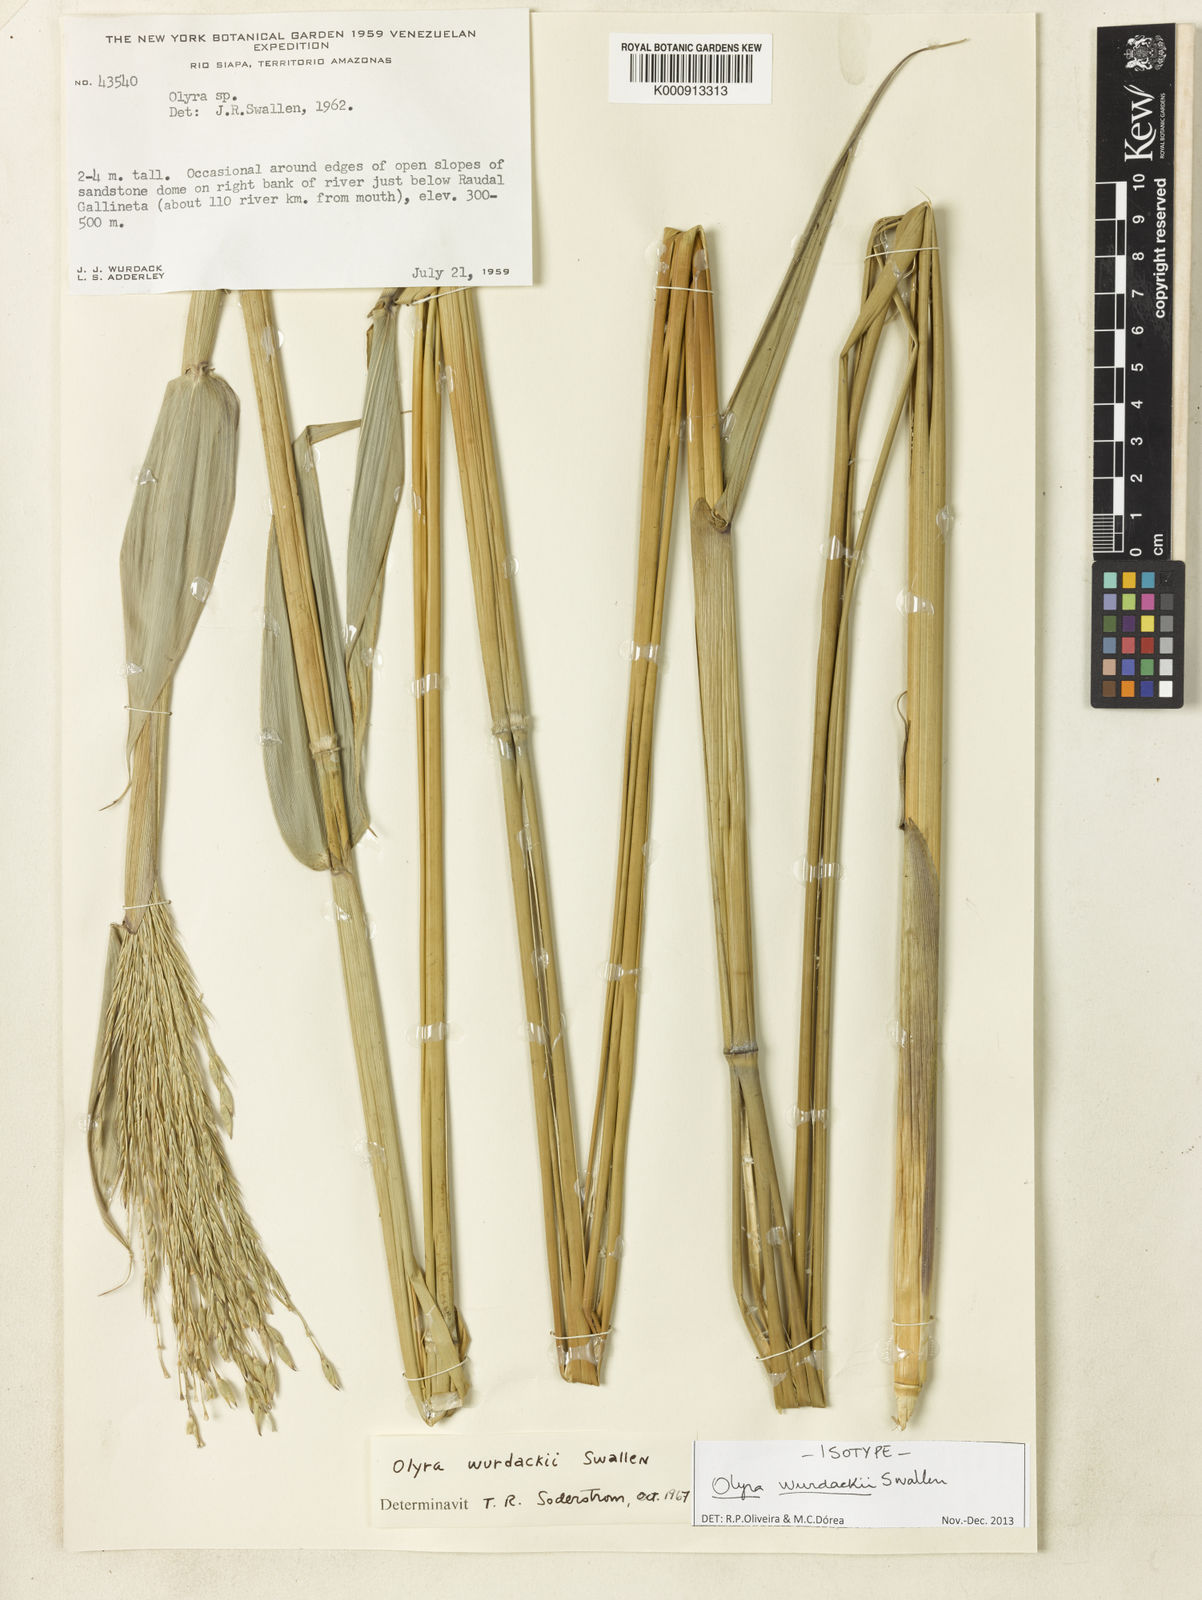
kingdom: Plantae
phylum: Tracheophyta
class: Liliopsida
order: Poales
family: Poaceae
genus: Olyra
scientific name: Olyra wurdackii
